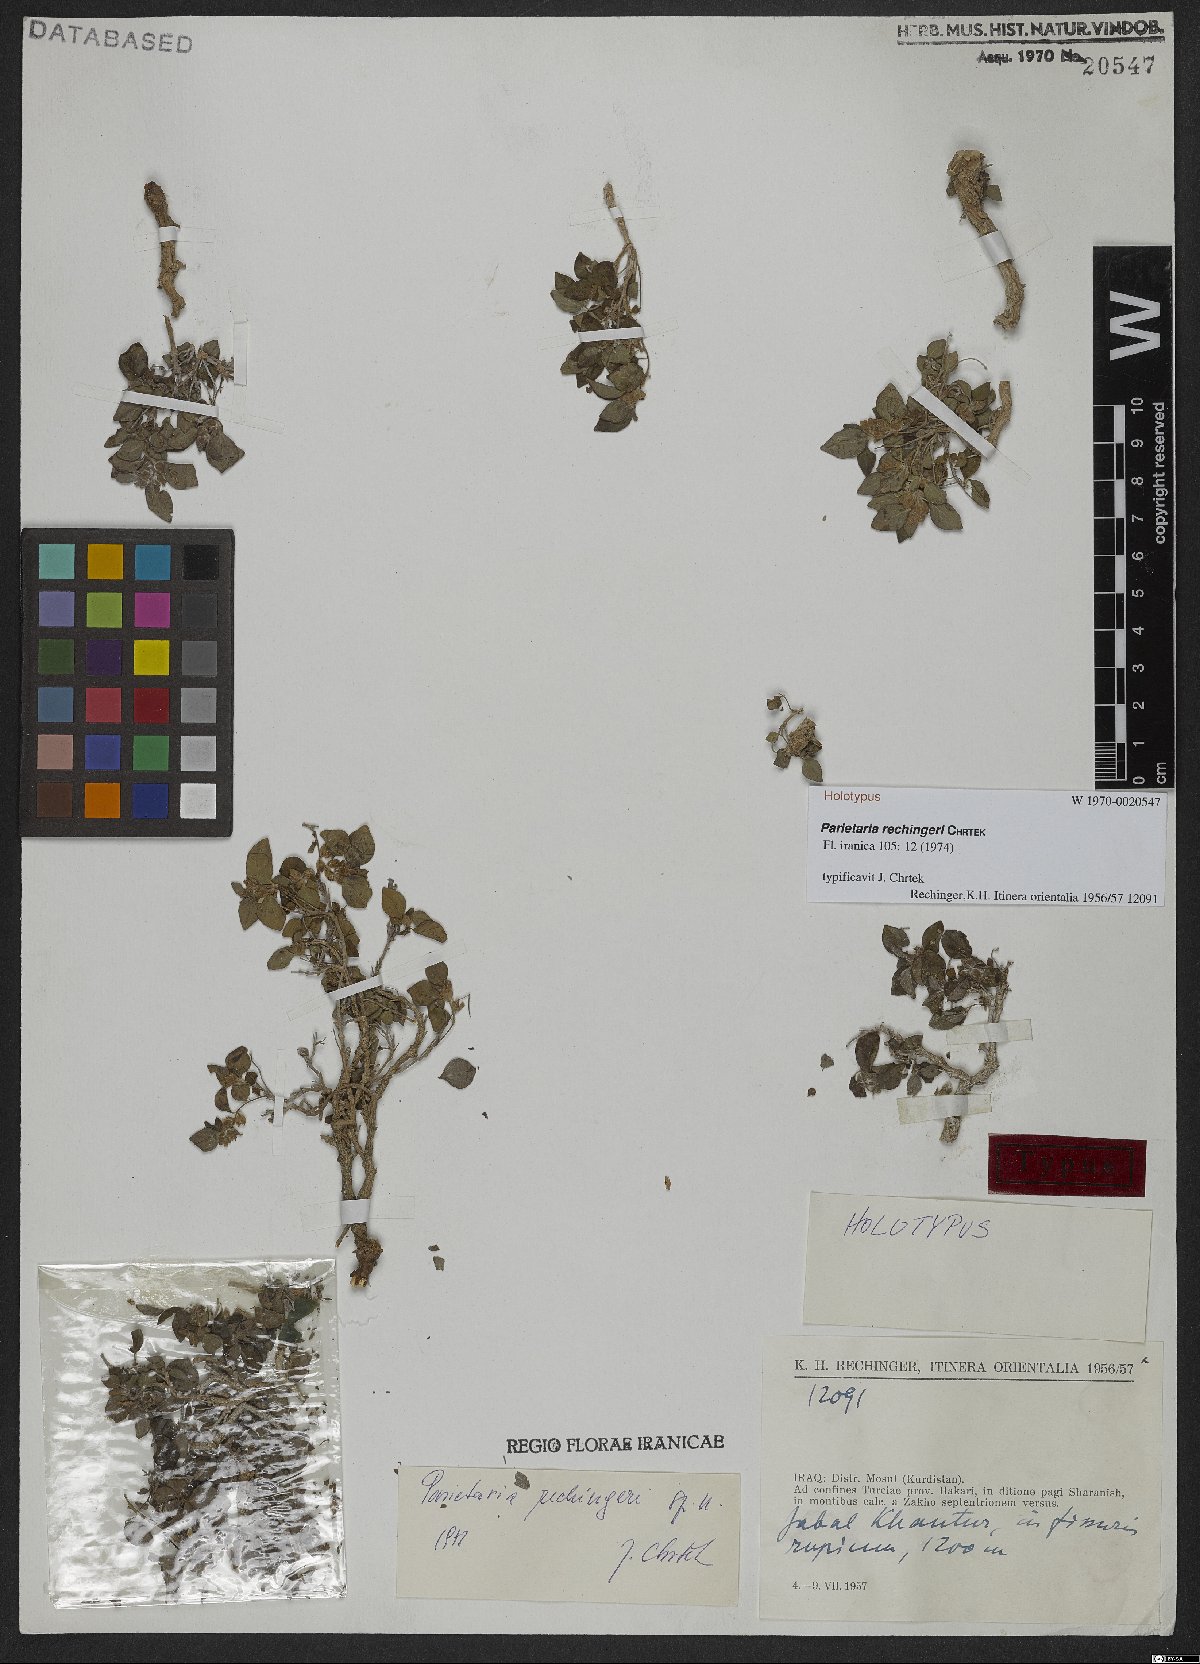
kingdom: Plantae
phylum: Tracheophyta
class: Magnoliopsida
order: Rosales
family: Urticaceae
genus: Parietaria
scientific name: Parietaria rechingeri
